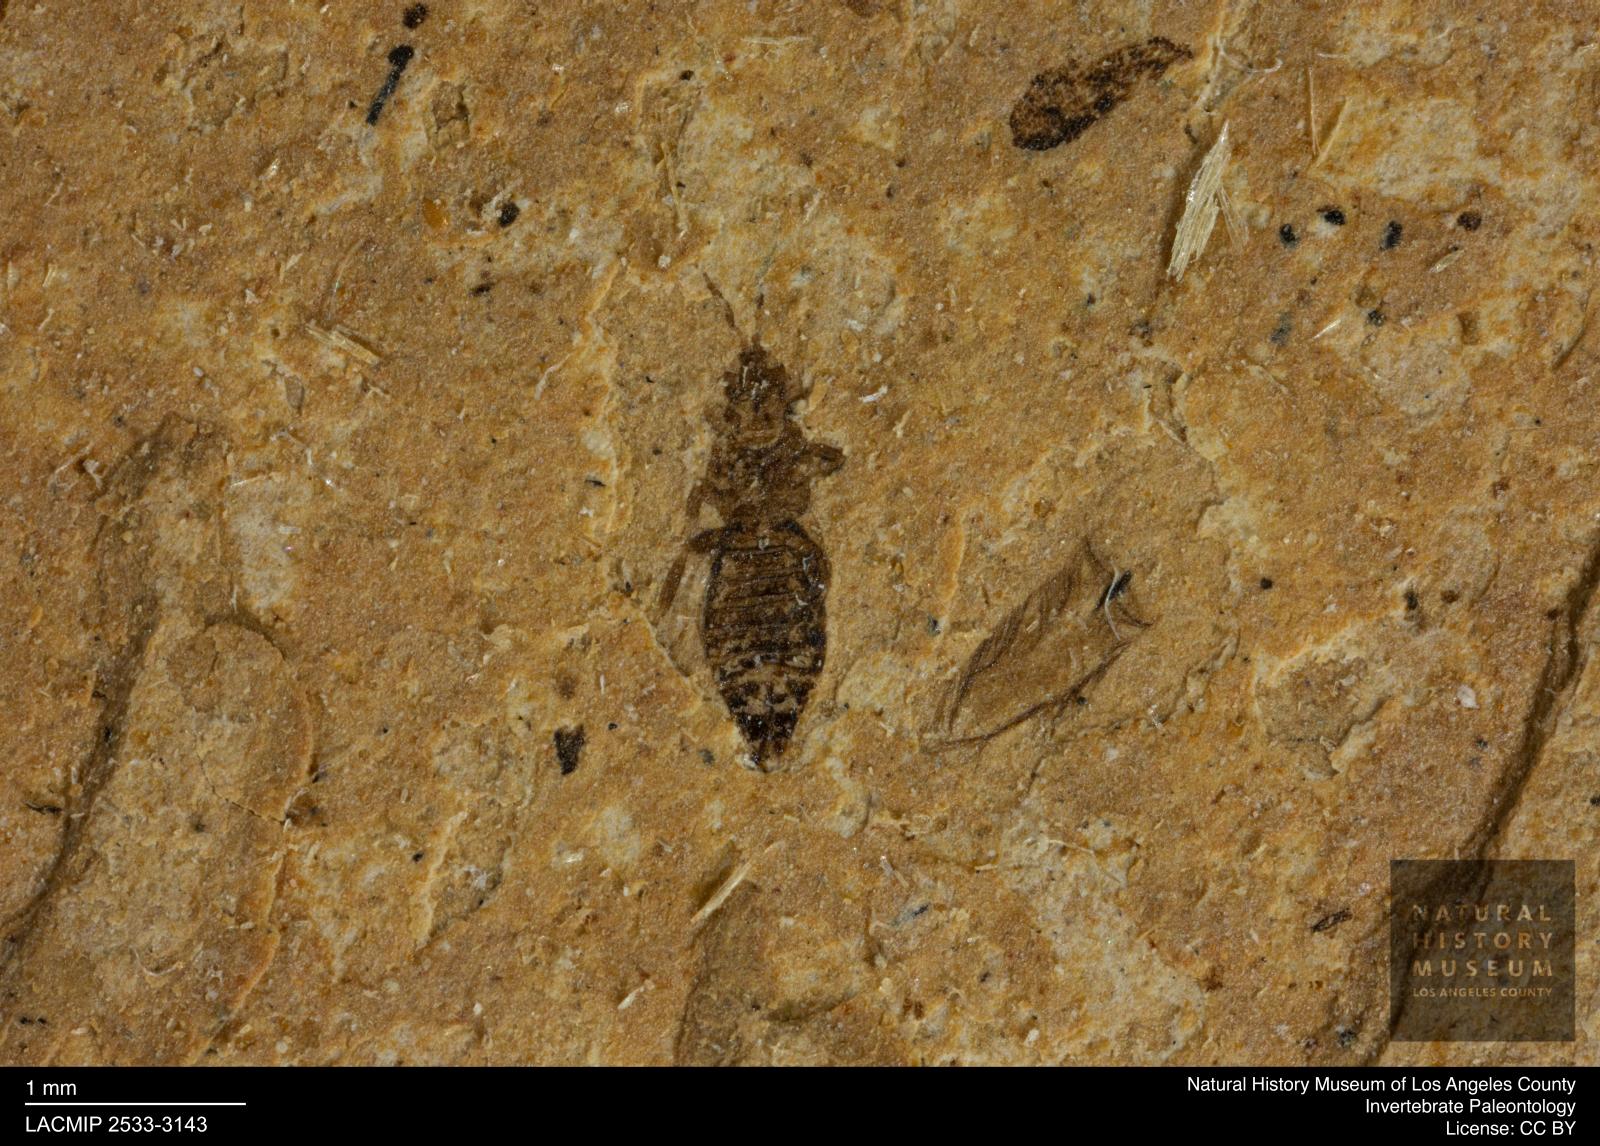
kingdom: Animalia
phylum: Arthropoda
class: Insecta
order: Thysanoptera
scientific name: Thysanoptera
